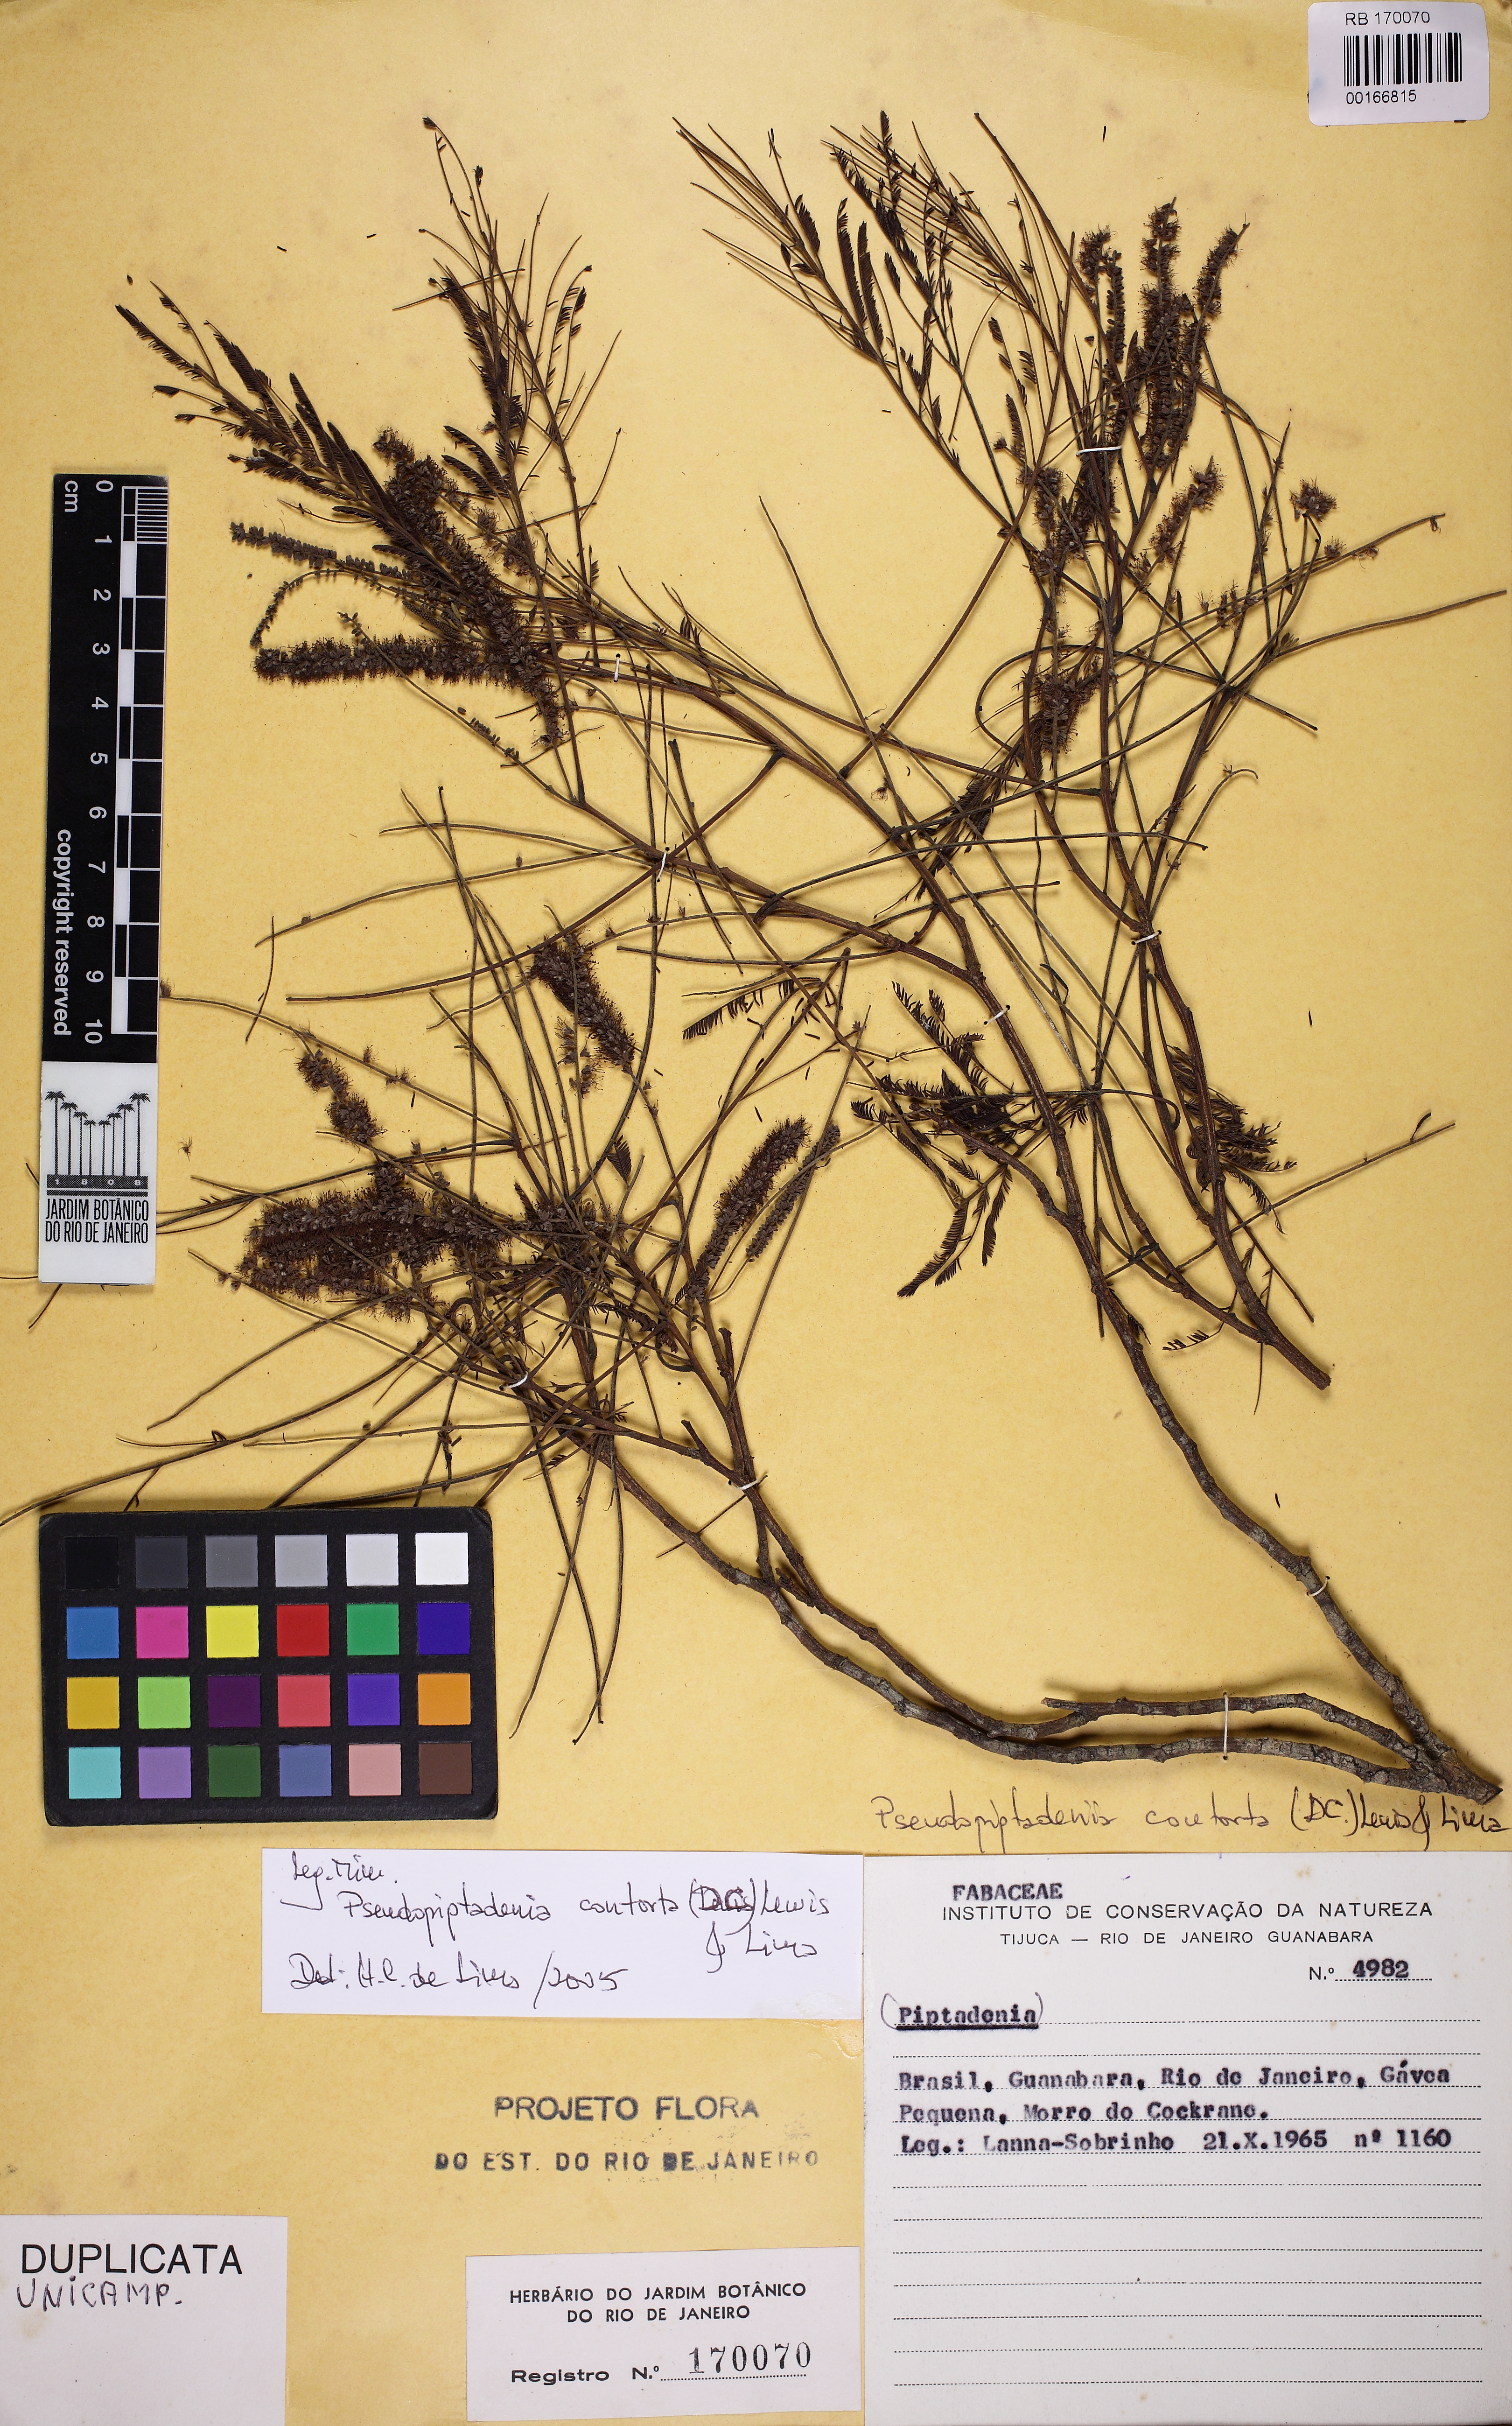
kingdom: Plantae
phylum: Tracheophyta
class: Magnoliopsida
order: Fabales
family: Fabaceae
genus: Nissolia
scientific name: Nissolia fruticosa
